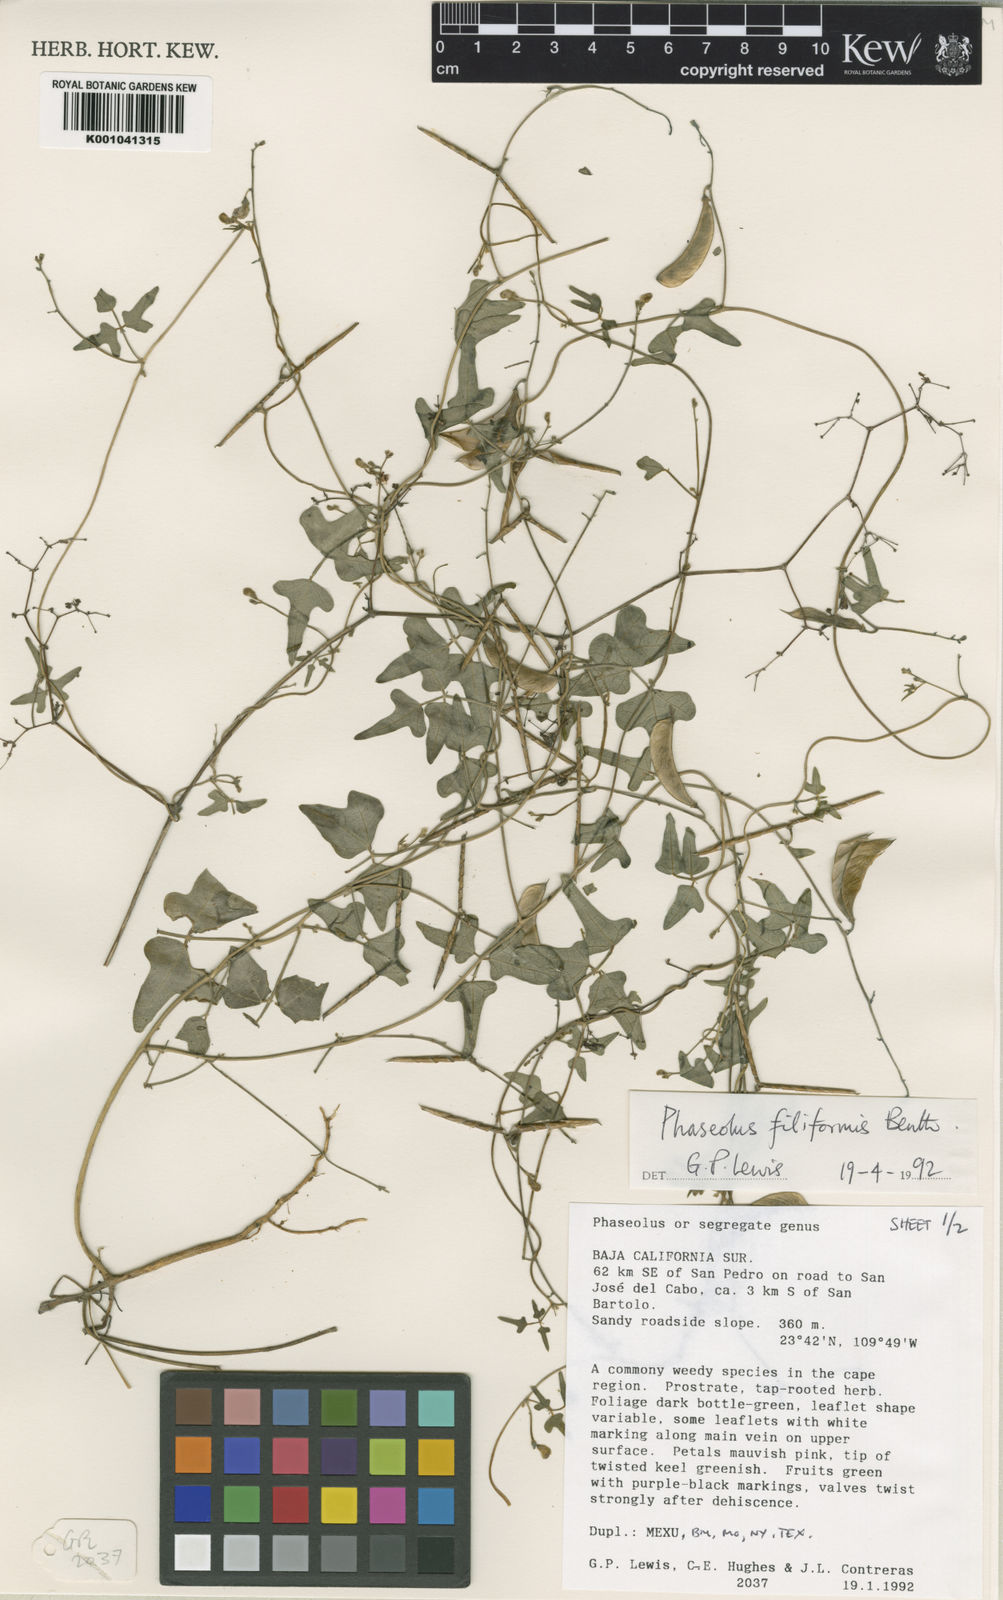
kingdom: Plantae
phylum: Tracheophyta
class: Magnoliopsida
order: Fabales
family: Fabaceae
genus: Phaseolus
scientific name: Phaseolus filiformis
